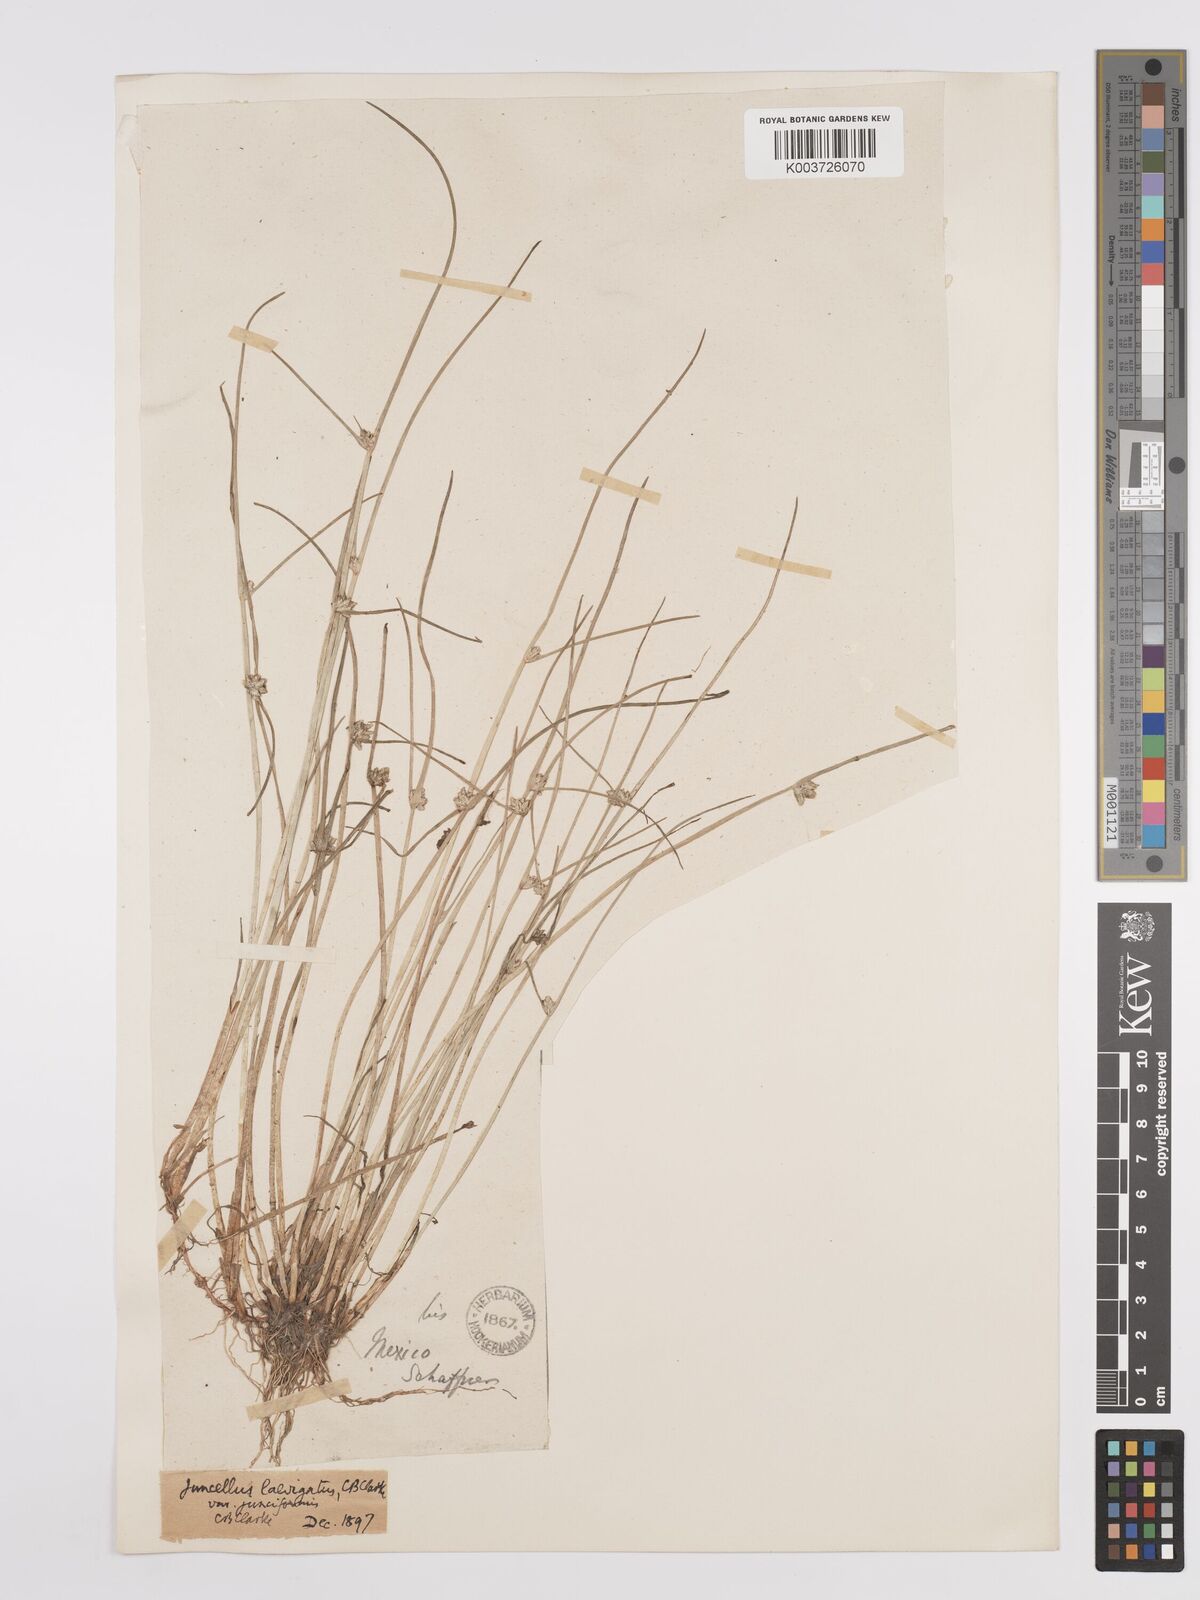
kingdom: Plantae
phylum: Tracheophyta
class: Liliopsida
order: Poales
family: Cyperaceae
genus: Cyperus
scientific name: Cyperus laevigatus
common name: Smooth flat sedge
